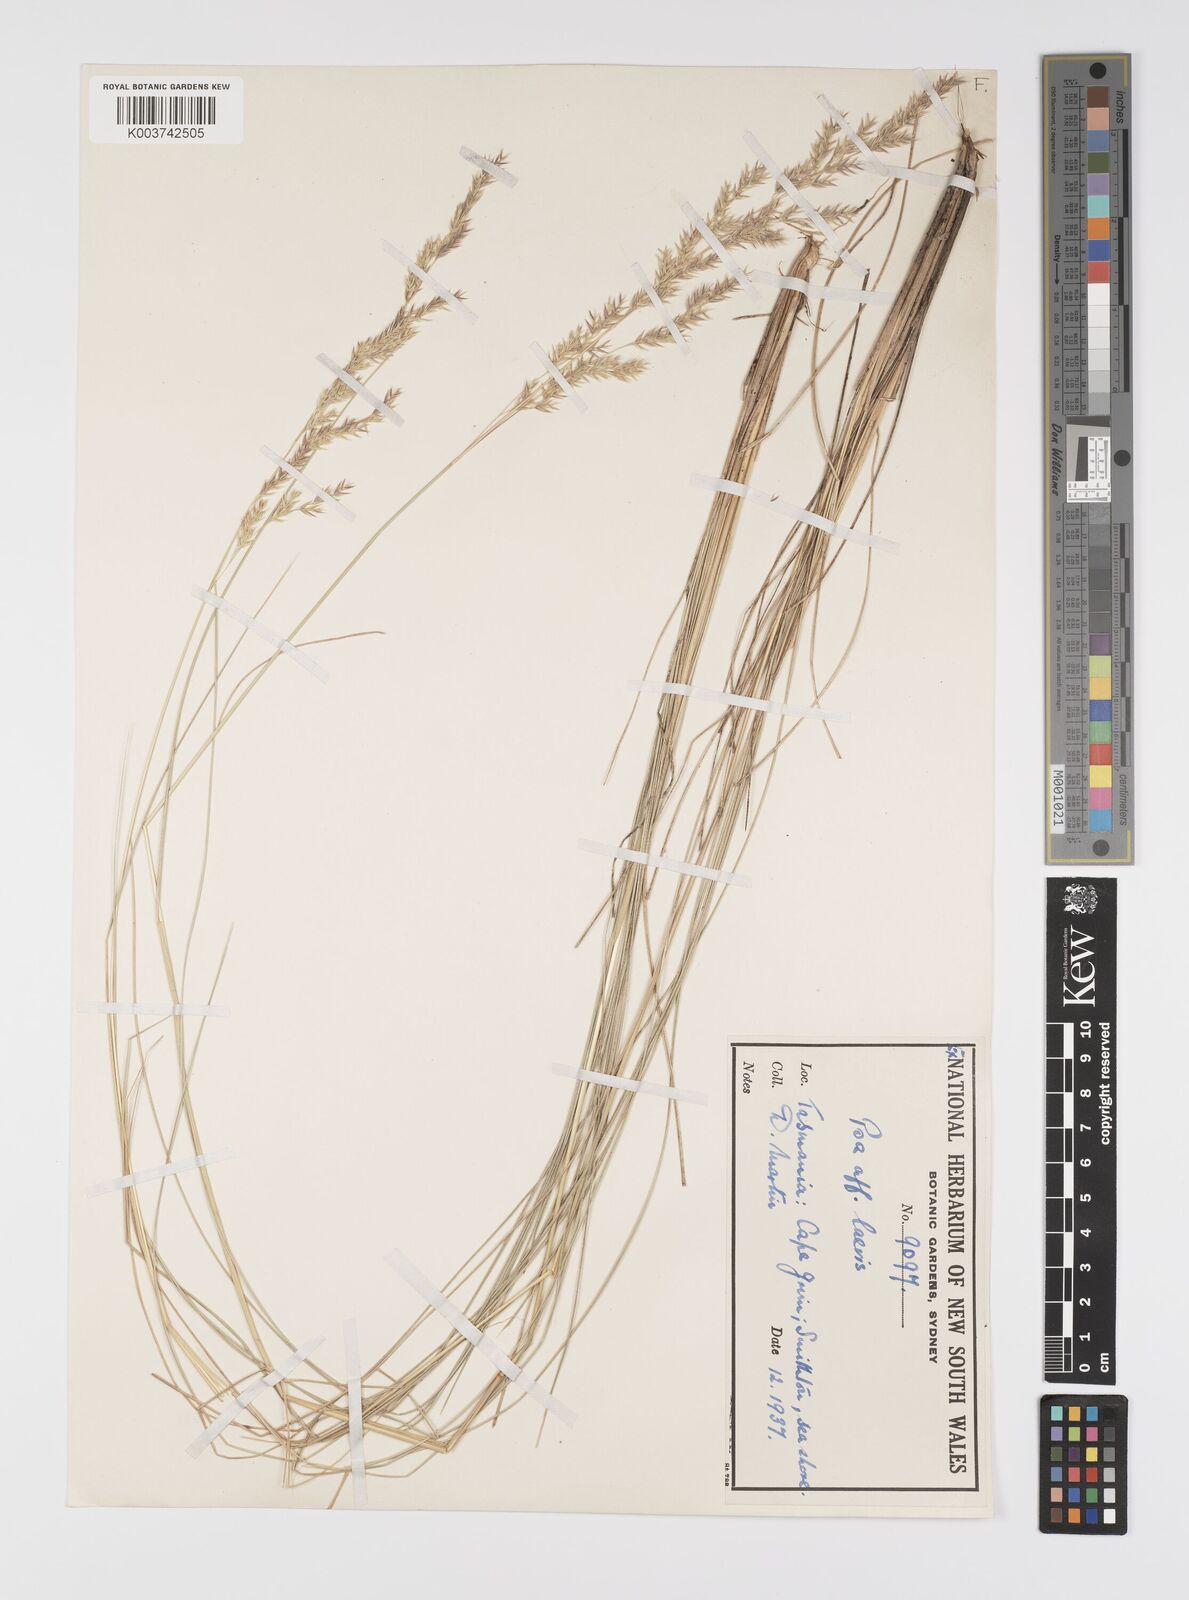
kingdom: Plantae
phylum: Tracheophyta
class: Liliopsida
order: Poales
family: Poaceae
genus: Poa
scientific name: Poa
